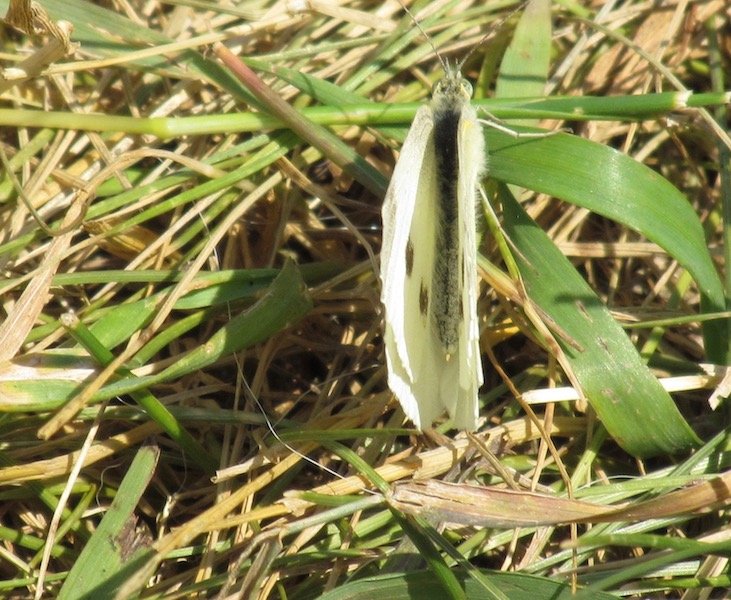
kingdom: Animalia
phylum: Arthropoda
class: Insecta
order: Lepidoptera
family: Pieridae
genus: Pieris
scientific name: Pieris rapae
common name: Cabbage White
